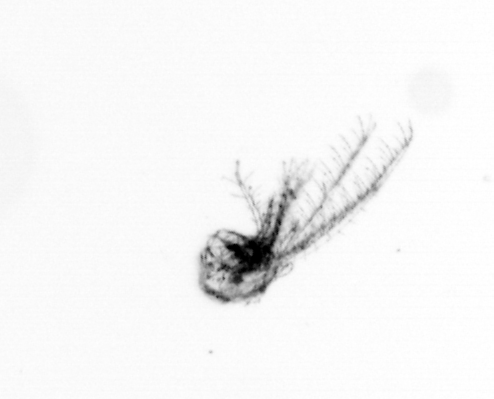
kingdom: Animalia
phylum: Arthropoda
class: Maxillopoda
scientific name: Maxillopoda
